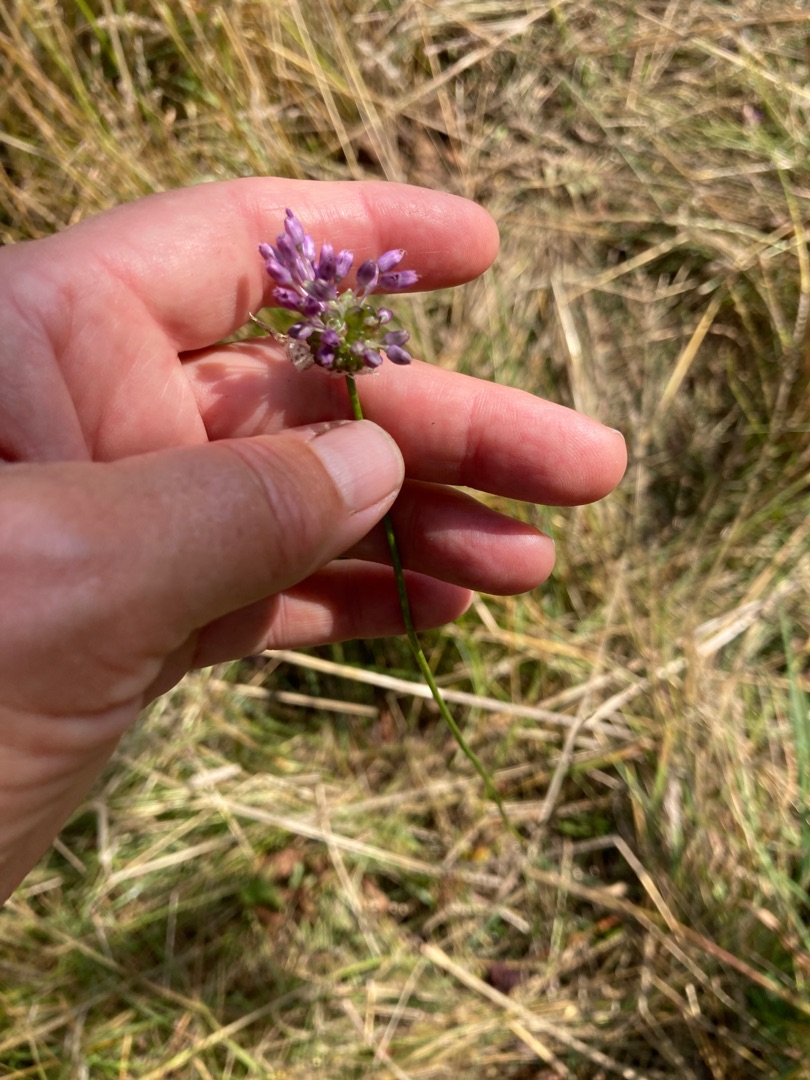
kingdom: Plantae
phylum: Tracheophyta
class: Liliopsida
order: Asparagales
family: Amaryllidaceae
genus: Allium
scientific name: Allium vineale
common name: Purpur sand-løg
